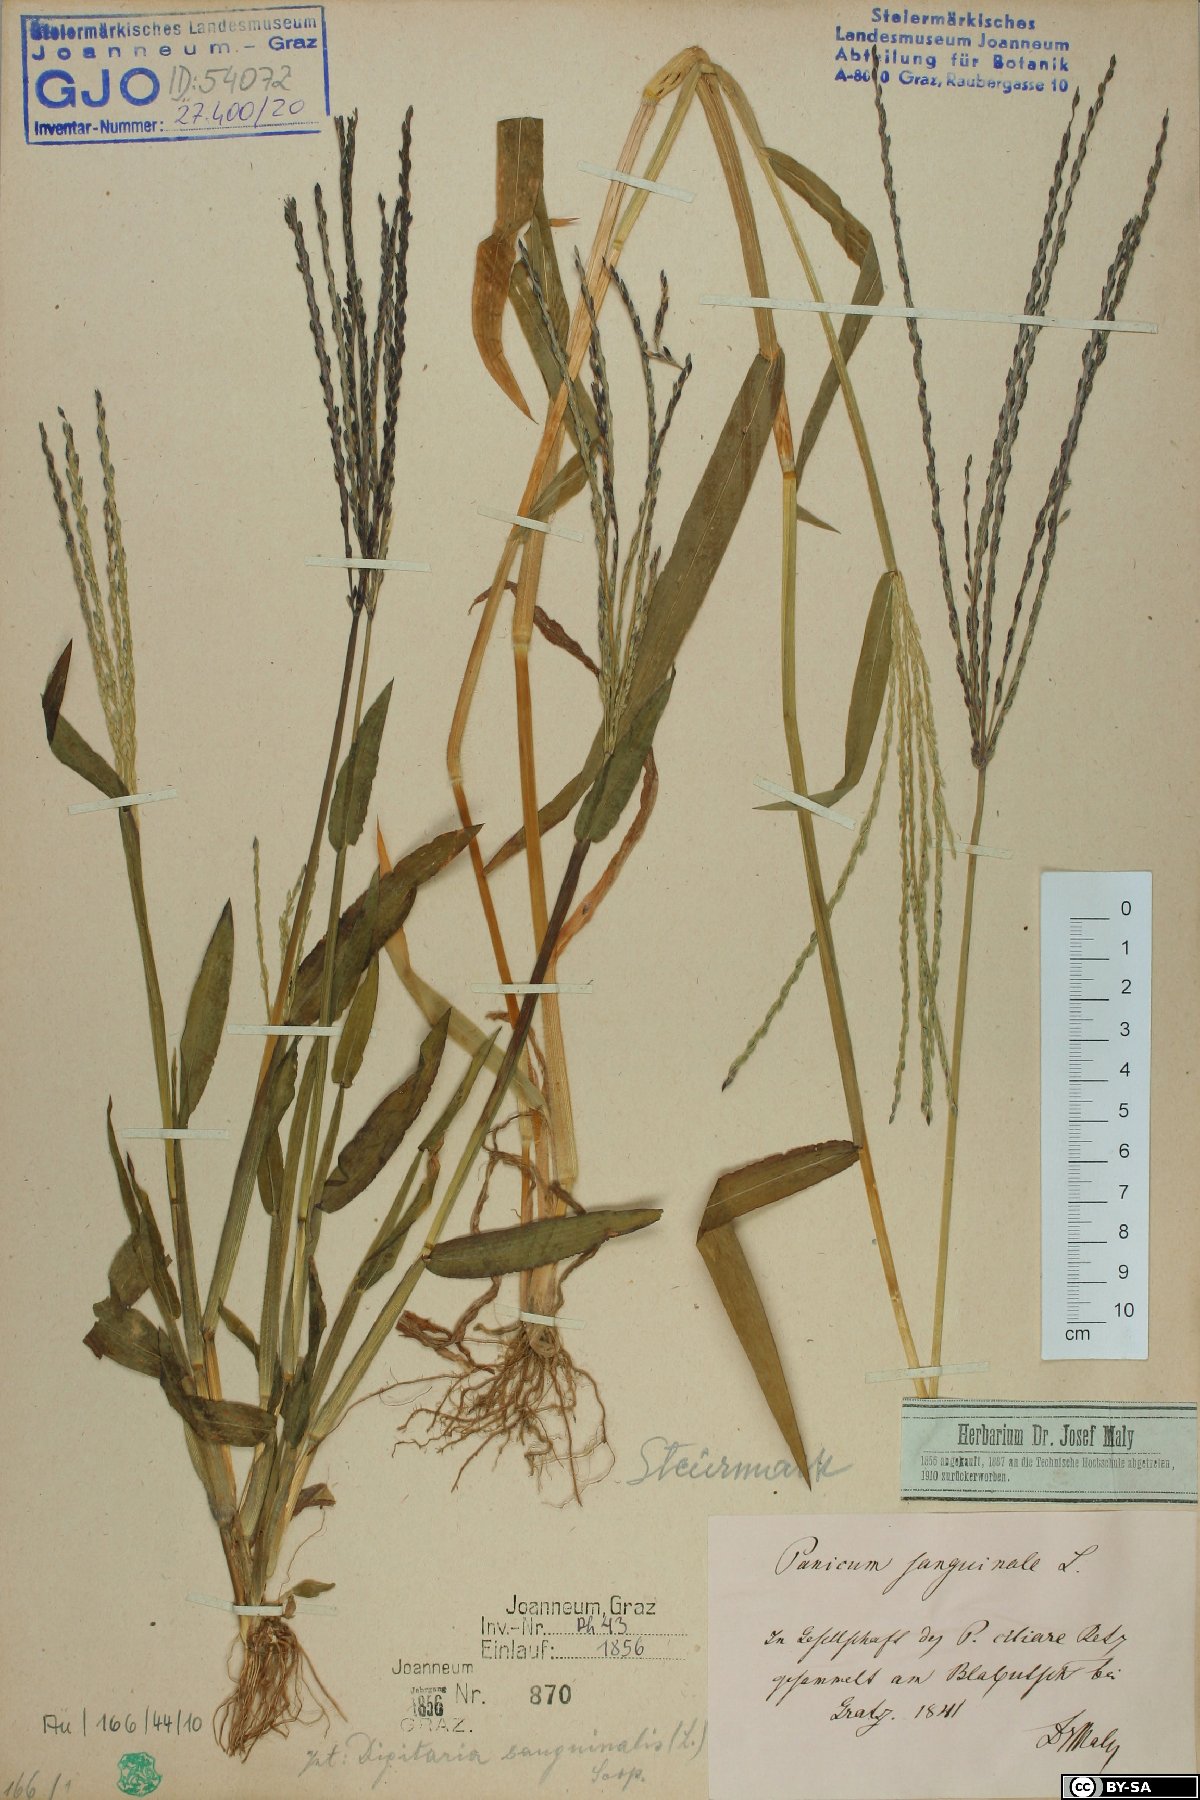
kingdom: Plantae
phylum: Tracheophyta
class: Liliopsida
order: Poales
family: Poaceae
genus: Digitaria
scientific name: Digitaria sanguinalis
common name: Hairy crabgrass
